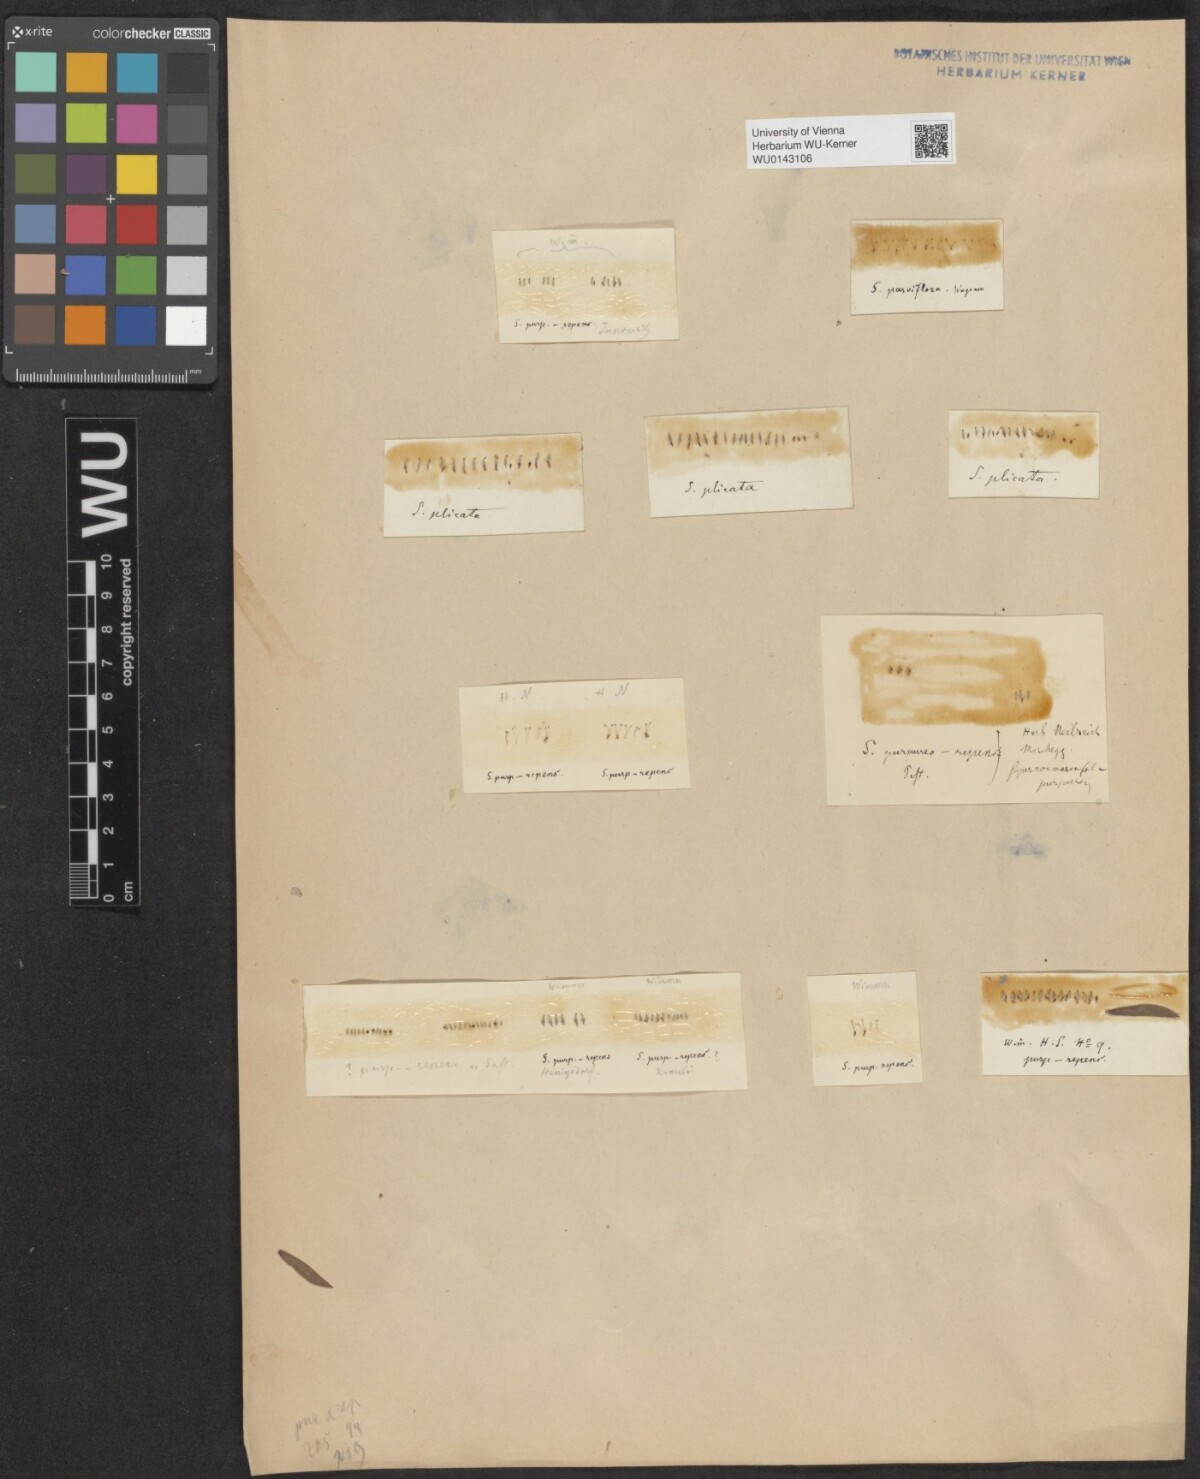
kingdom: Plantae
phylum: Tracheophyta
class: Magnoliopsida
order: Malpighiales
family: Salicaceae
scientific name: Salicaceae
